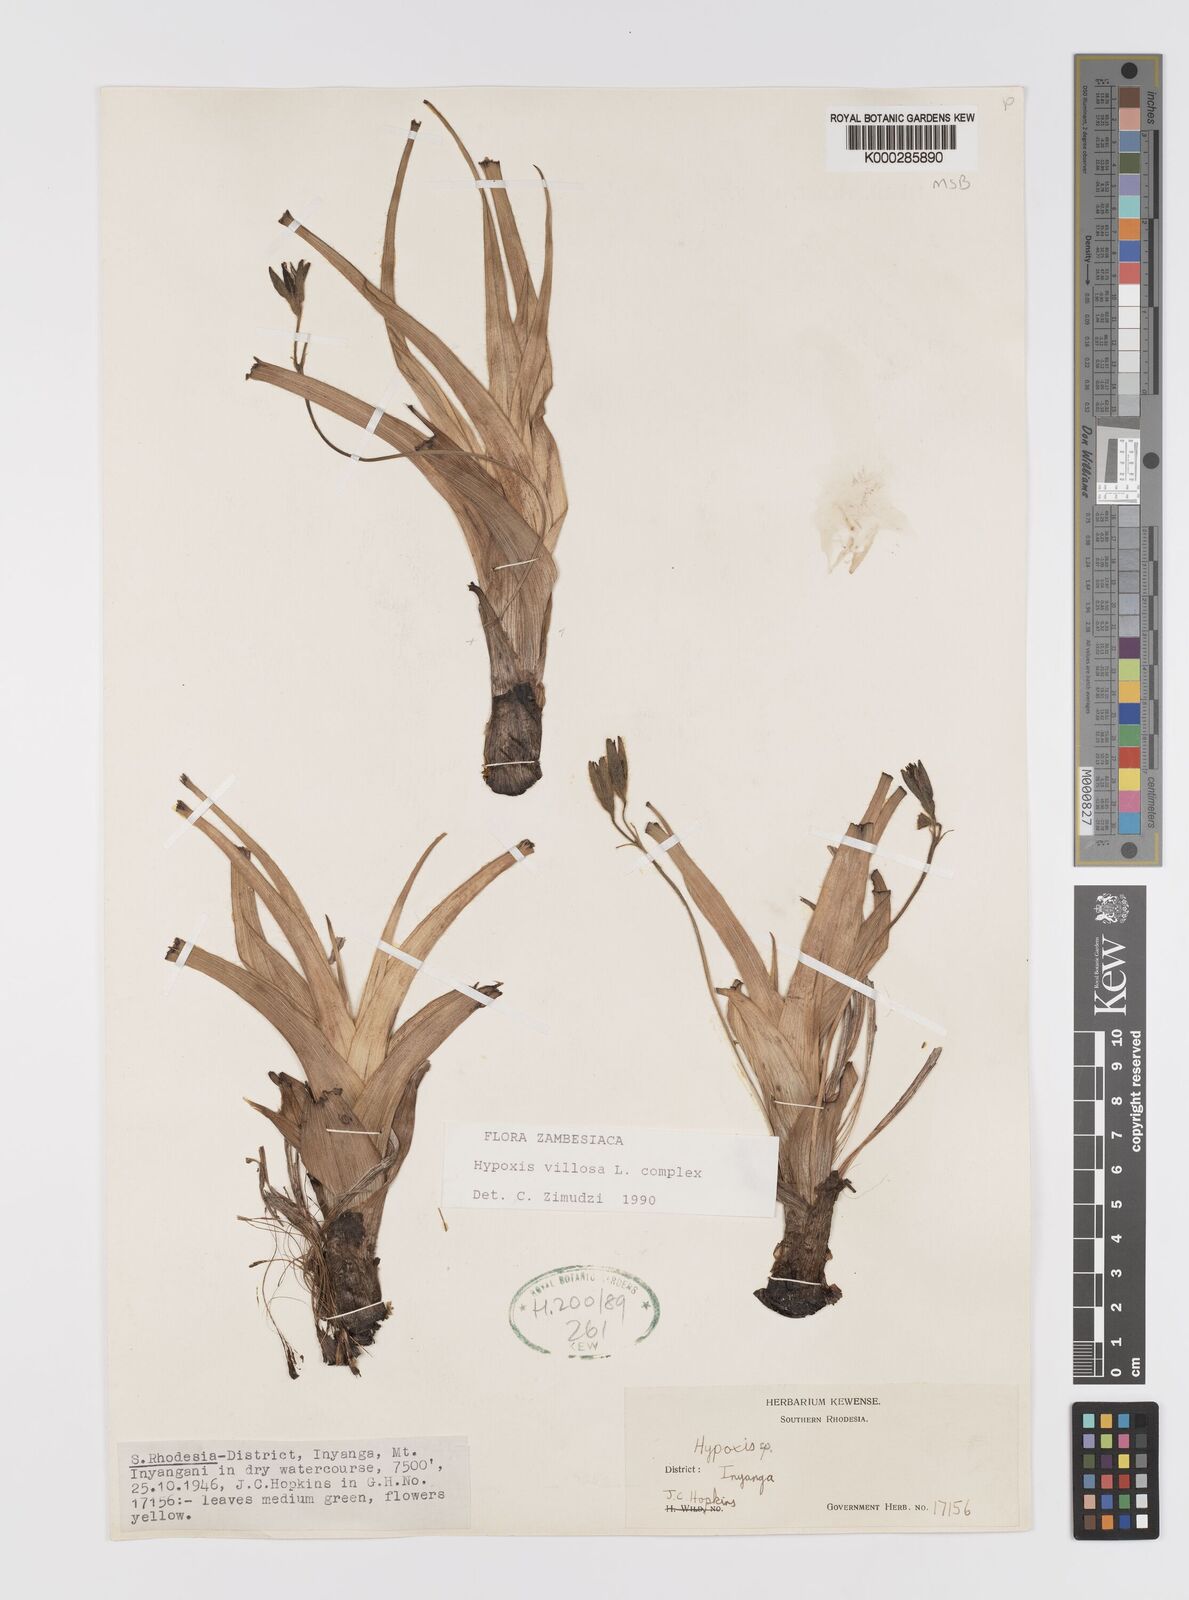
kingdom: Plantae
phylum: Tracheophyta
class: Liliopsida
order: Asparagales
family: Hypoxidaceae
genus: Hypoxis
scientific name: Hypoxis
